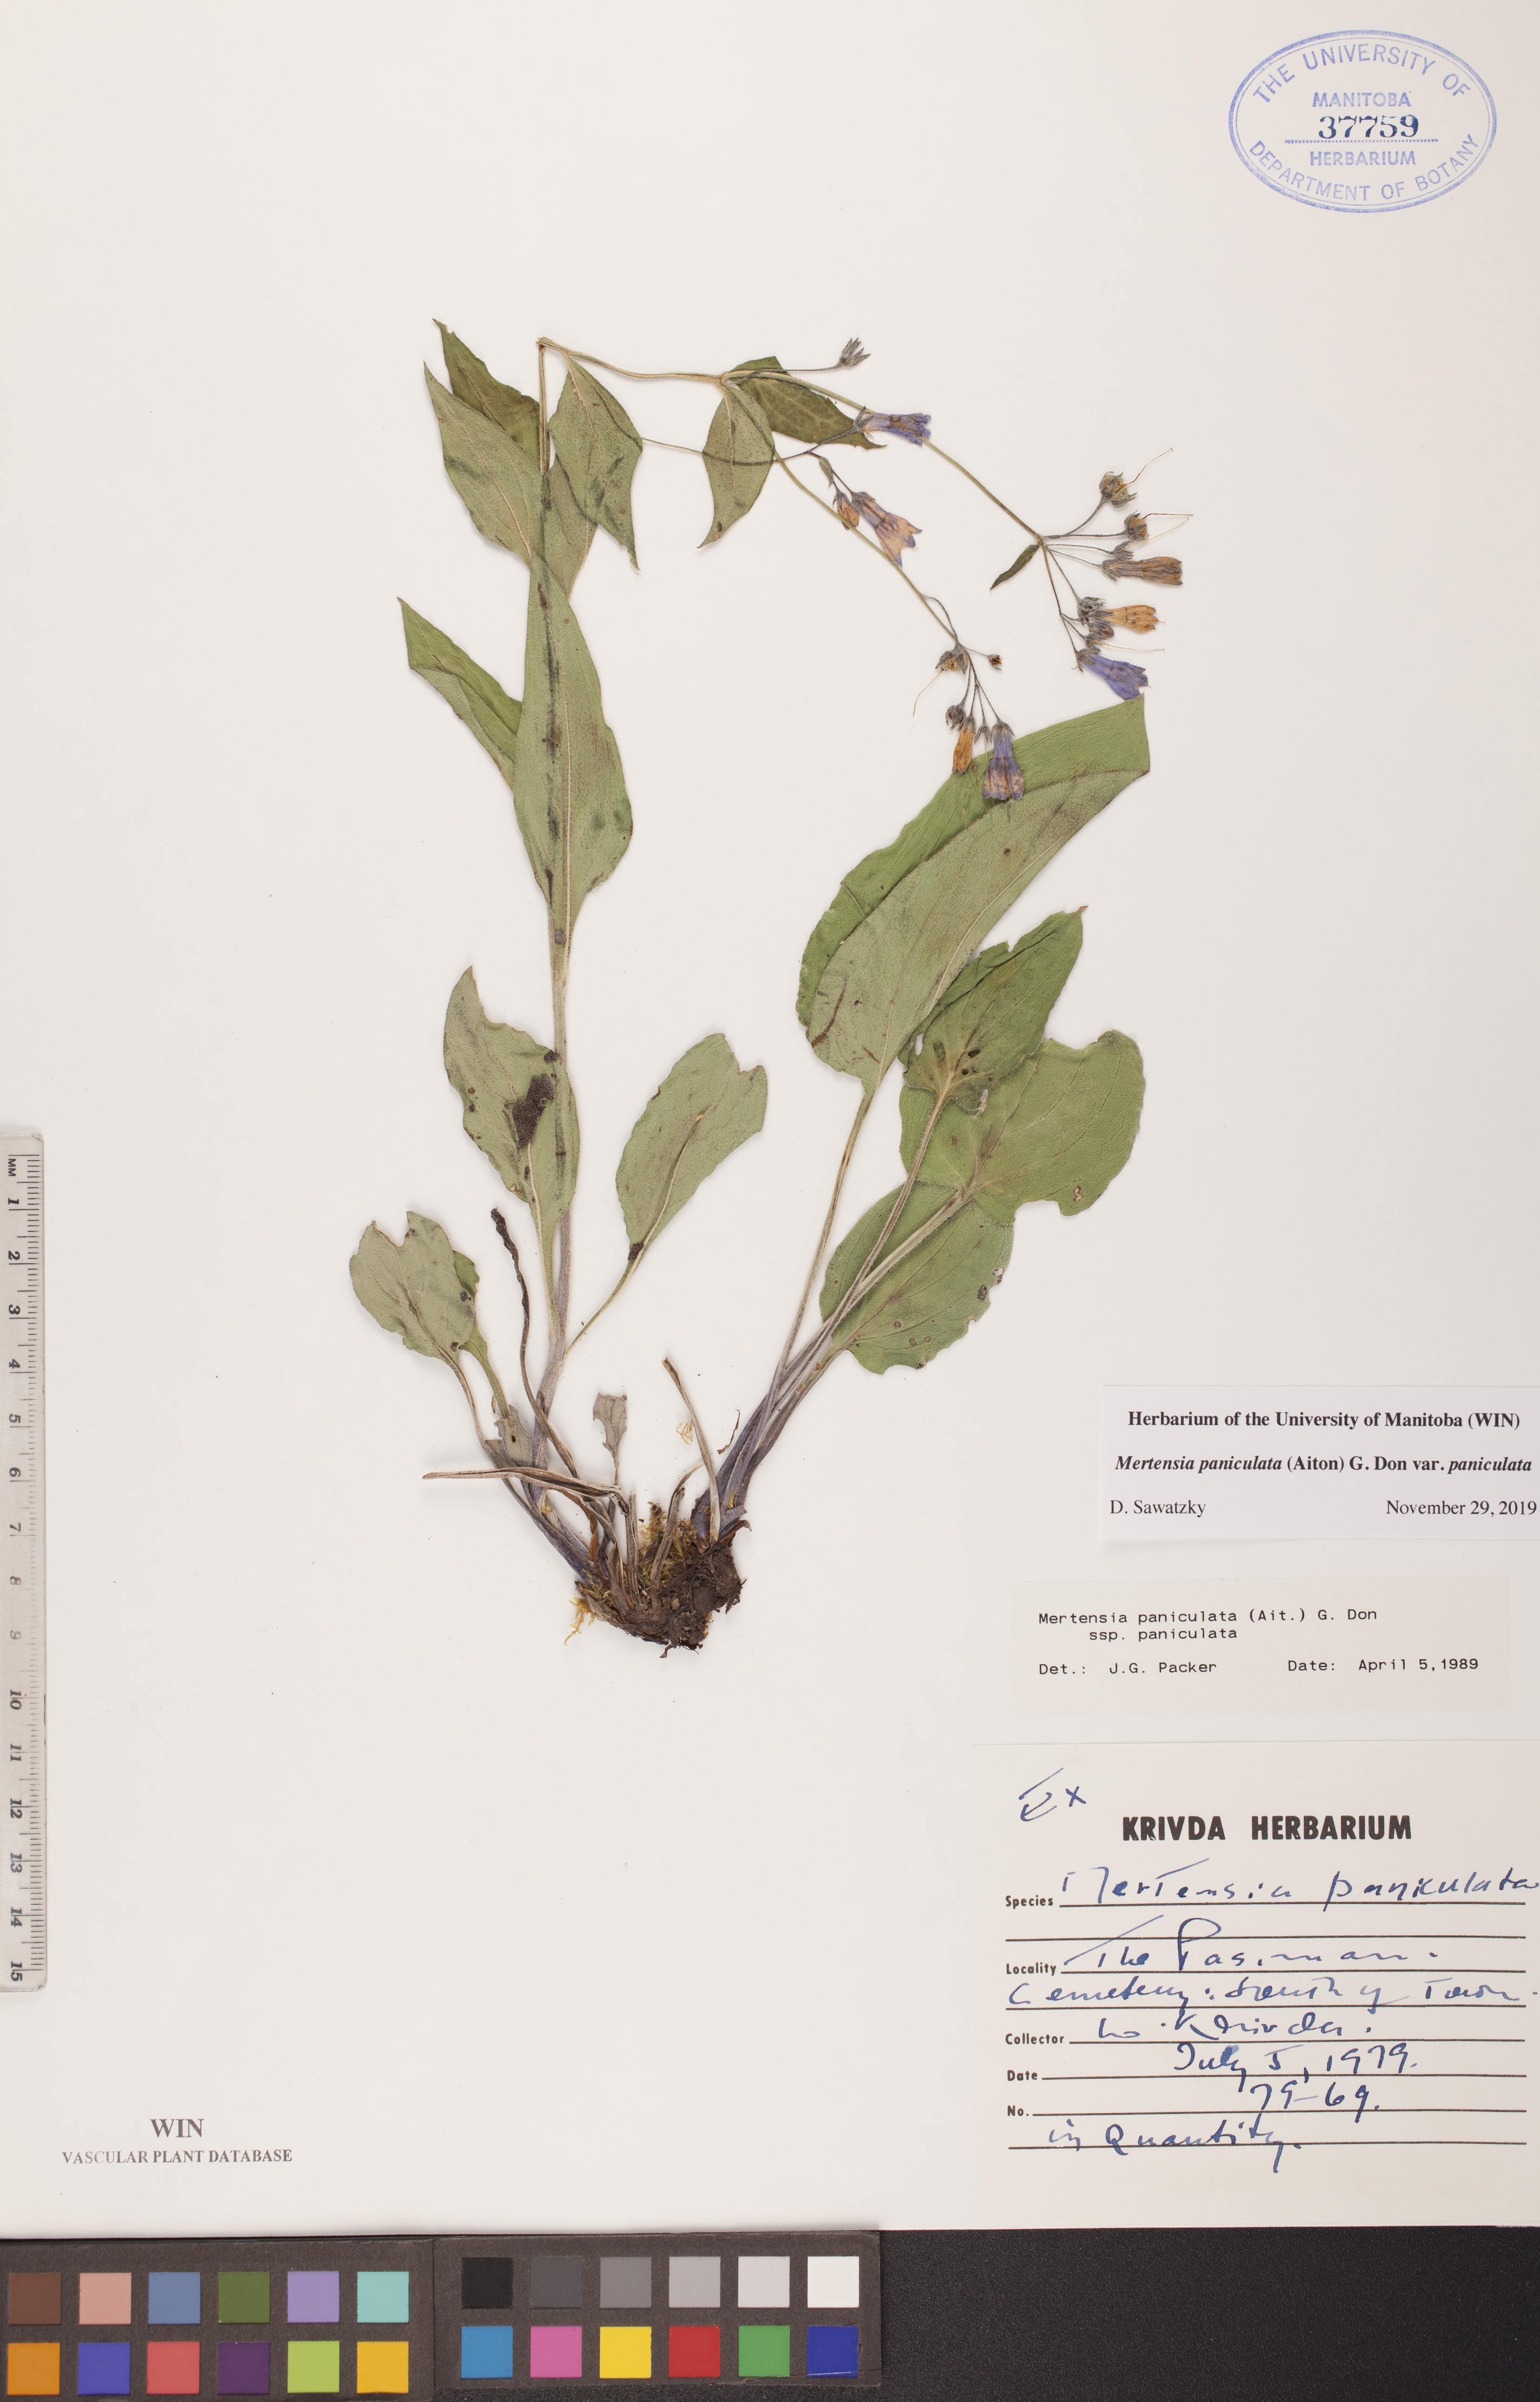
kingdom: Plantae
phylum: Tracheophyta
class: Magnoliopsida
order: Boraginales
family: Boraginaceae
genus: Mertensia
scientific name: Mertensia paniculata
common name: Panicled bluebells
